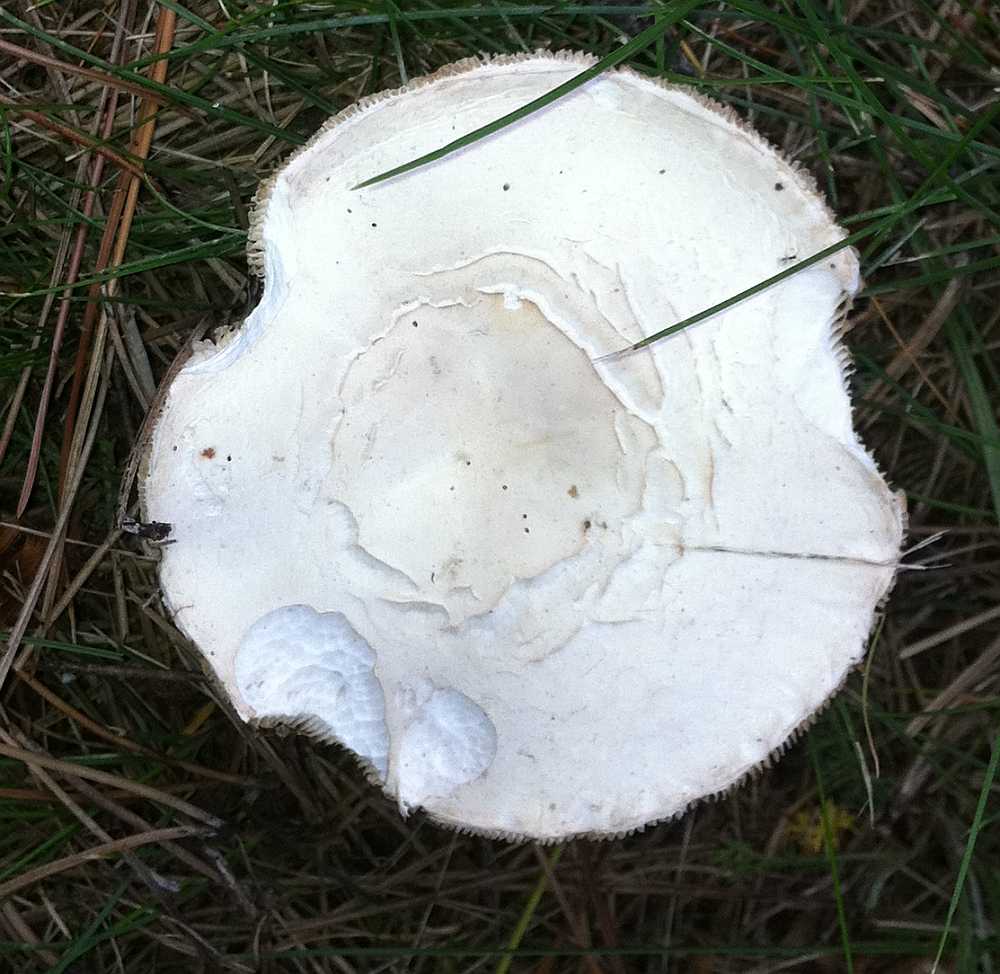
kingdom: Fungi
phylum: Basidiomycota
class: Agaricomycetes
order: Agaricales
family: Agaricaceae
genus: Leucoagaricus
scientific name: Leucoagaricus carneifolius
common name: grånende silkehat
